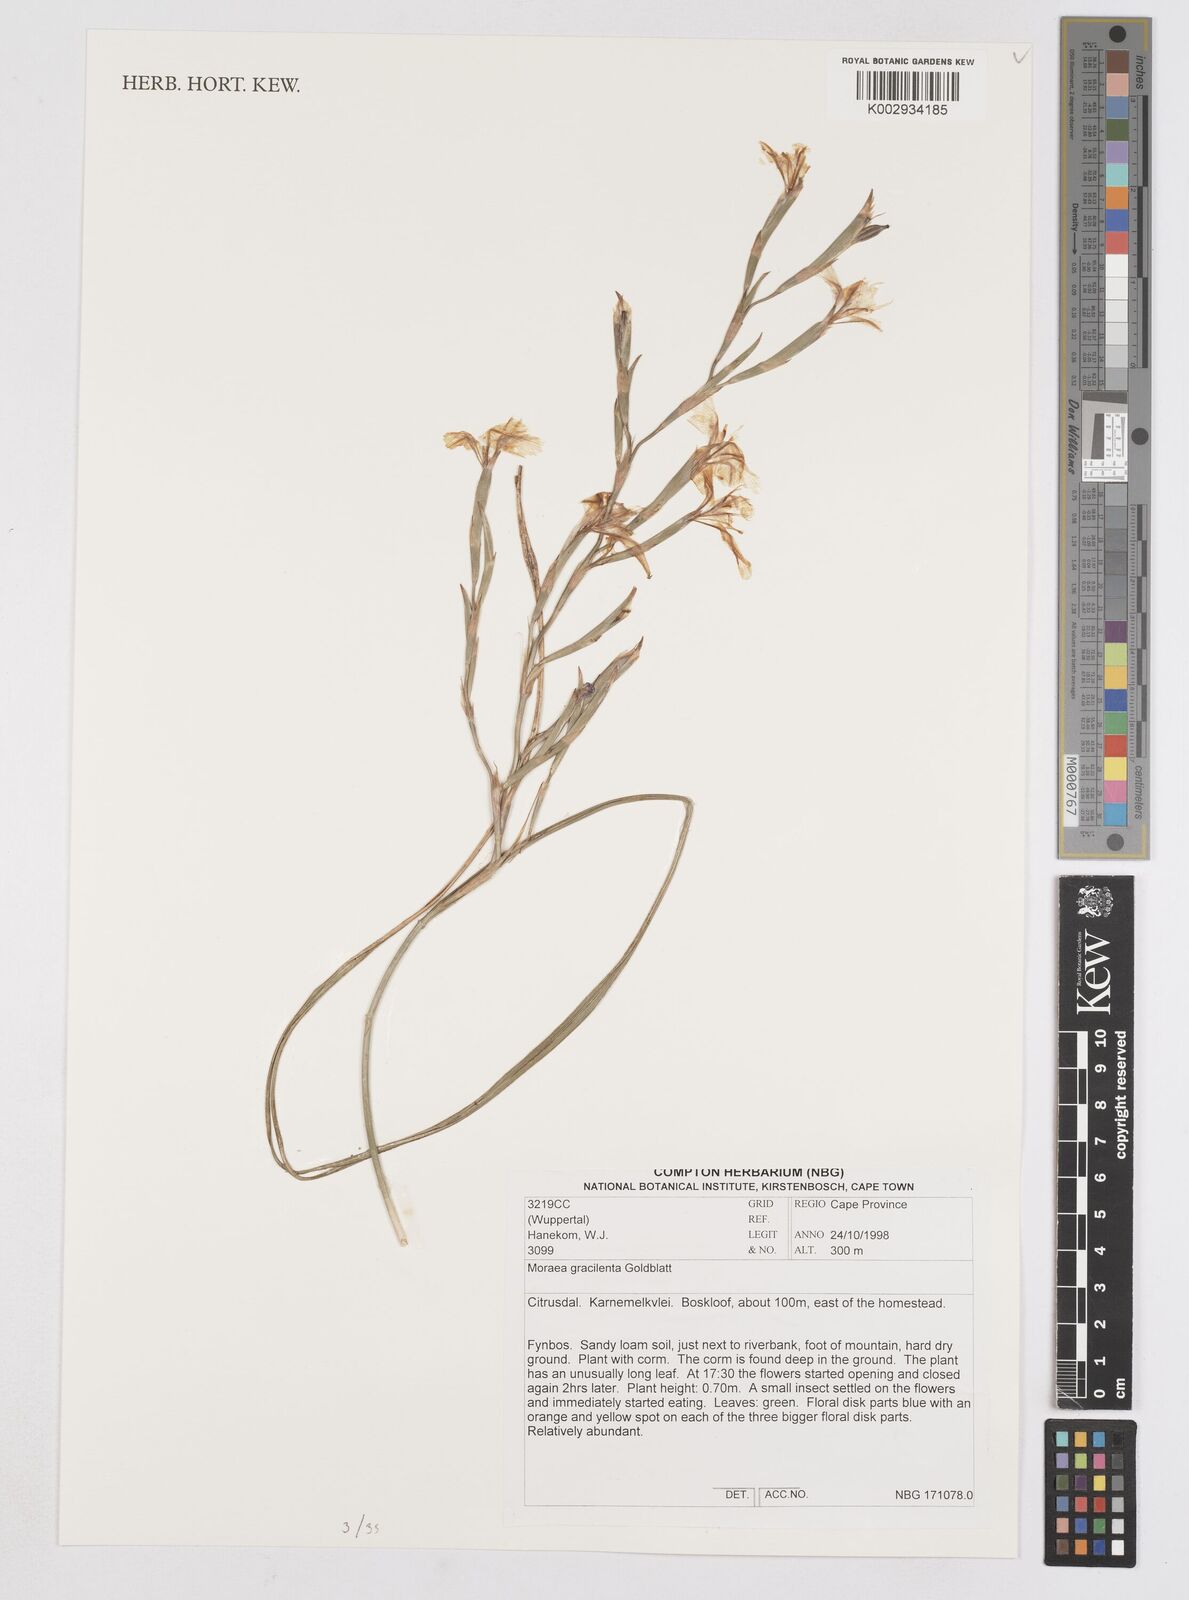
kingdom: Plantae
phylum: Tracheophyta
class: Liliopsida
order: Asparagales
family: Iridaceae
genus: Moraea
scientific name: Moraea gracilenta
